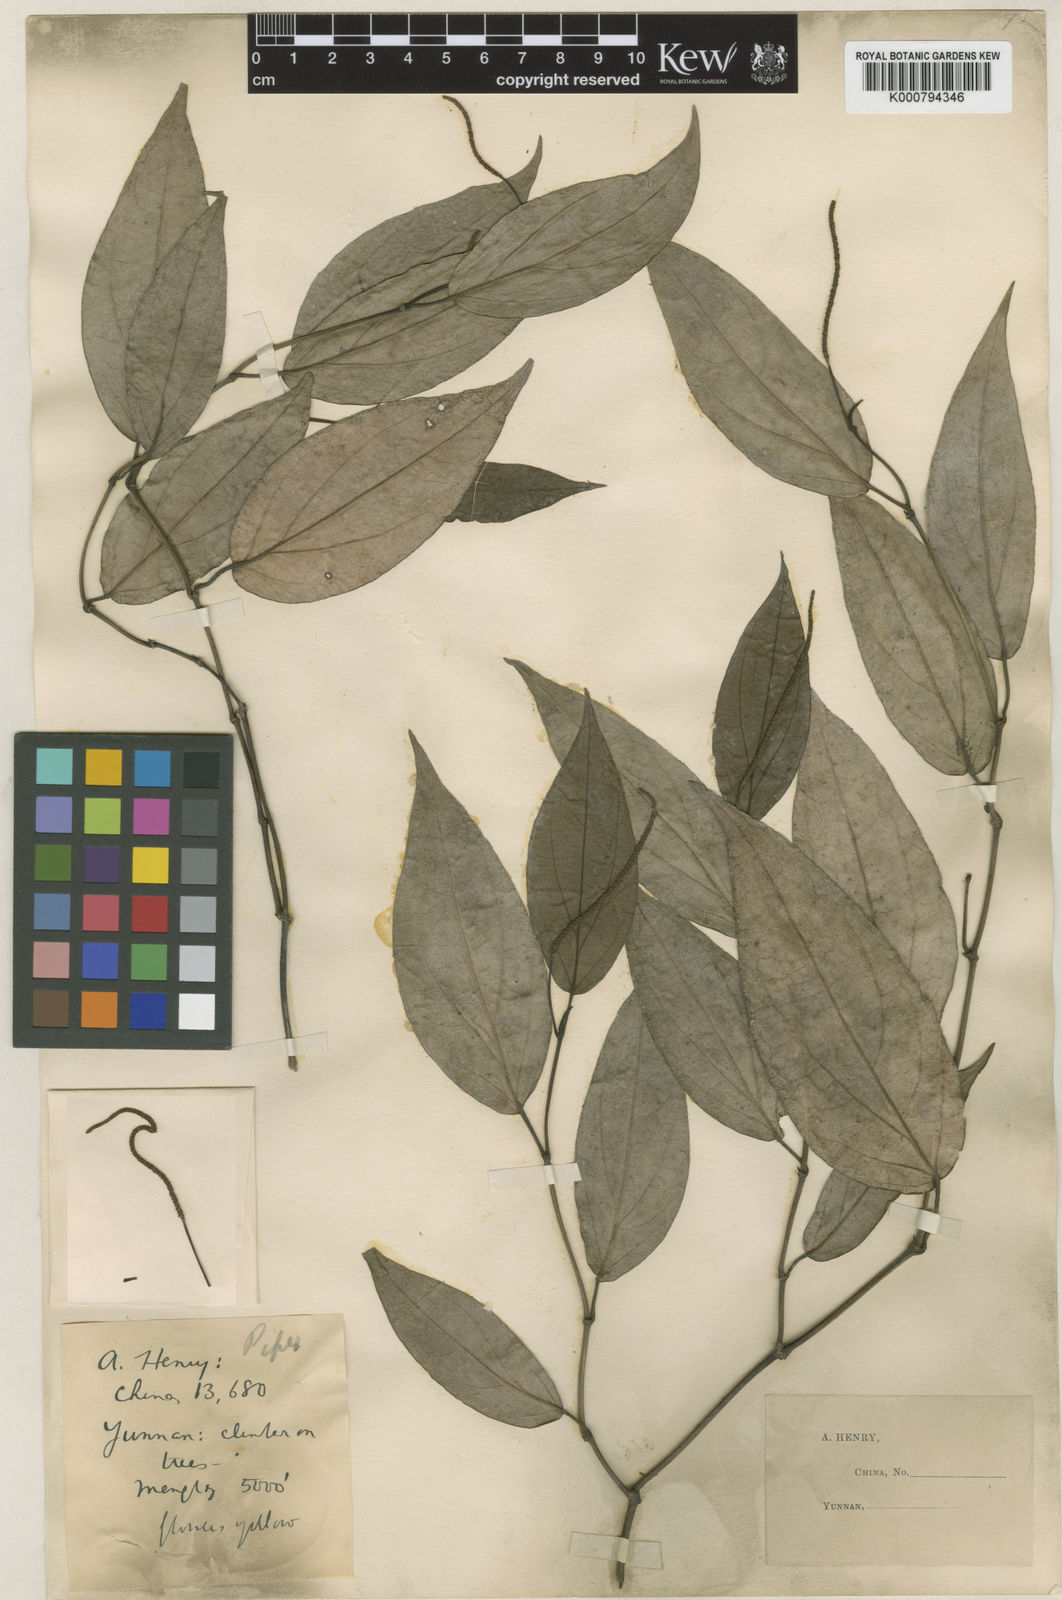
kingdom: Plantae
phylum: Tracheophyta
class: Magnoliopsida
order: Piperales
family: Piperaceae
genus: Piper
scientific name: Piper puberulilimbum
